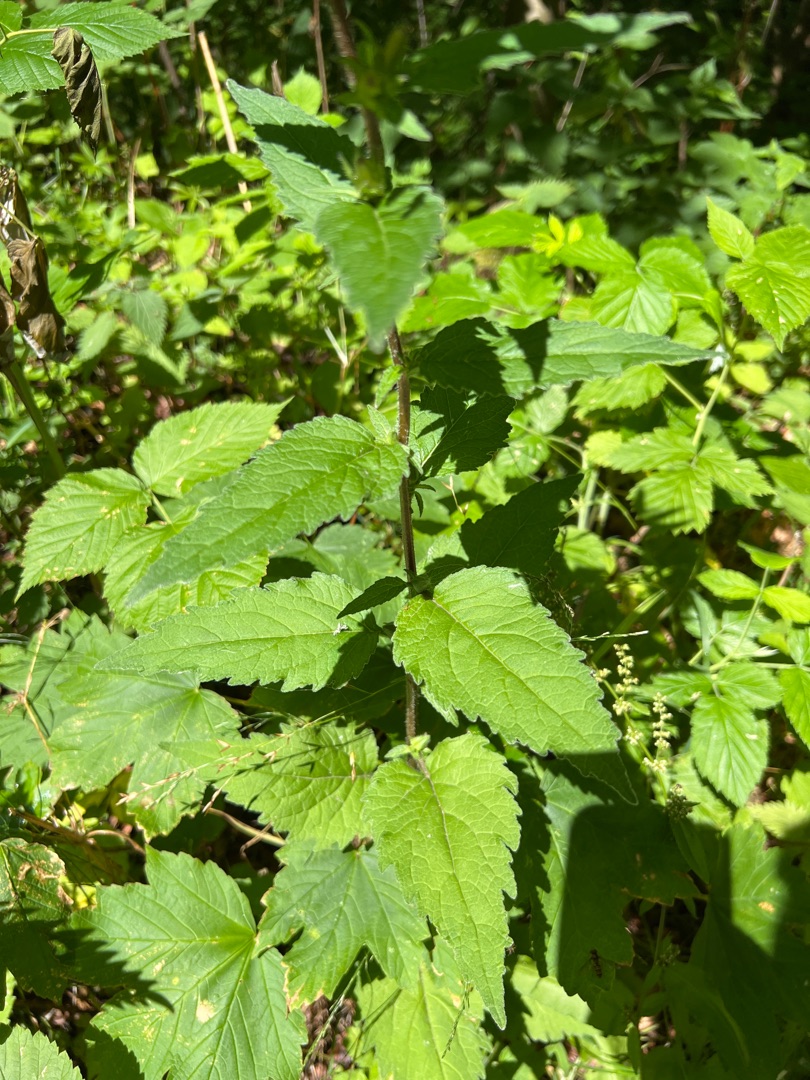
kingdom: Plantae
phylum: Tracheophyta
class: Magnoliopsida
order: Asterales
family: Campanulaceae
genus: Campanula
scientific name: Campanula trachelium
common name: Nælde-klokke
